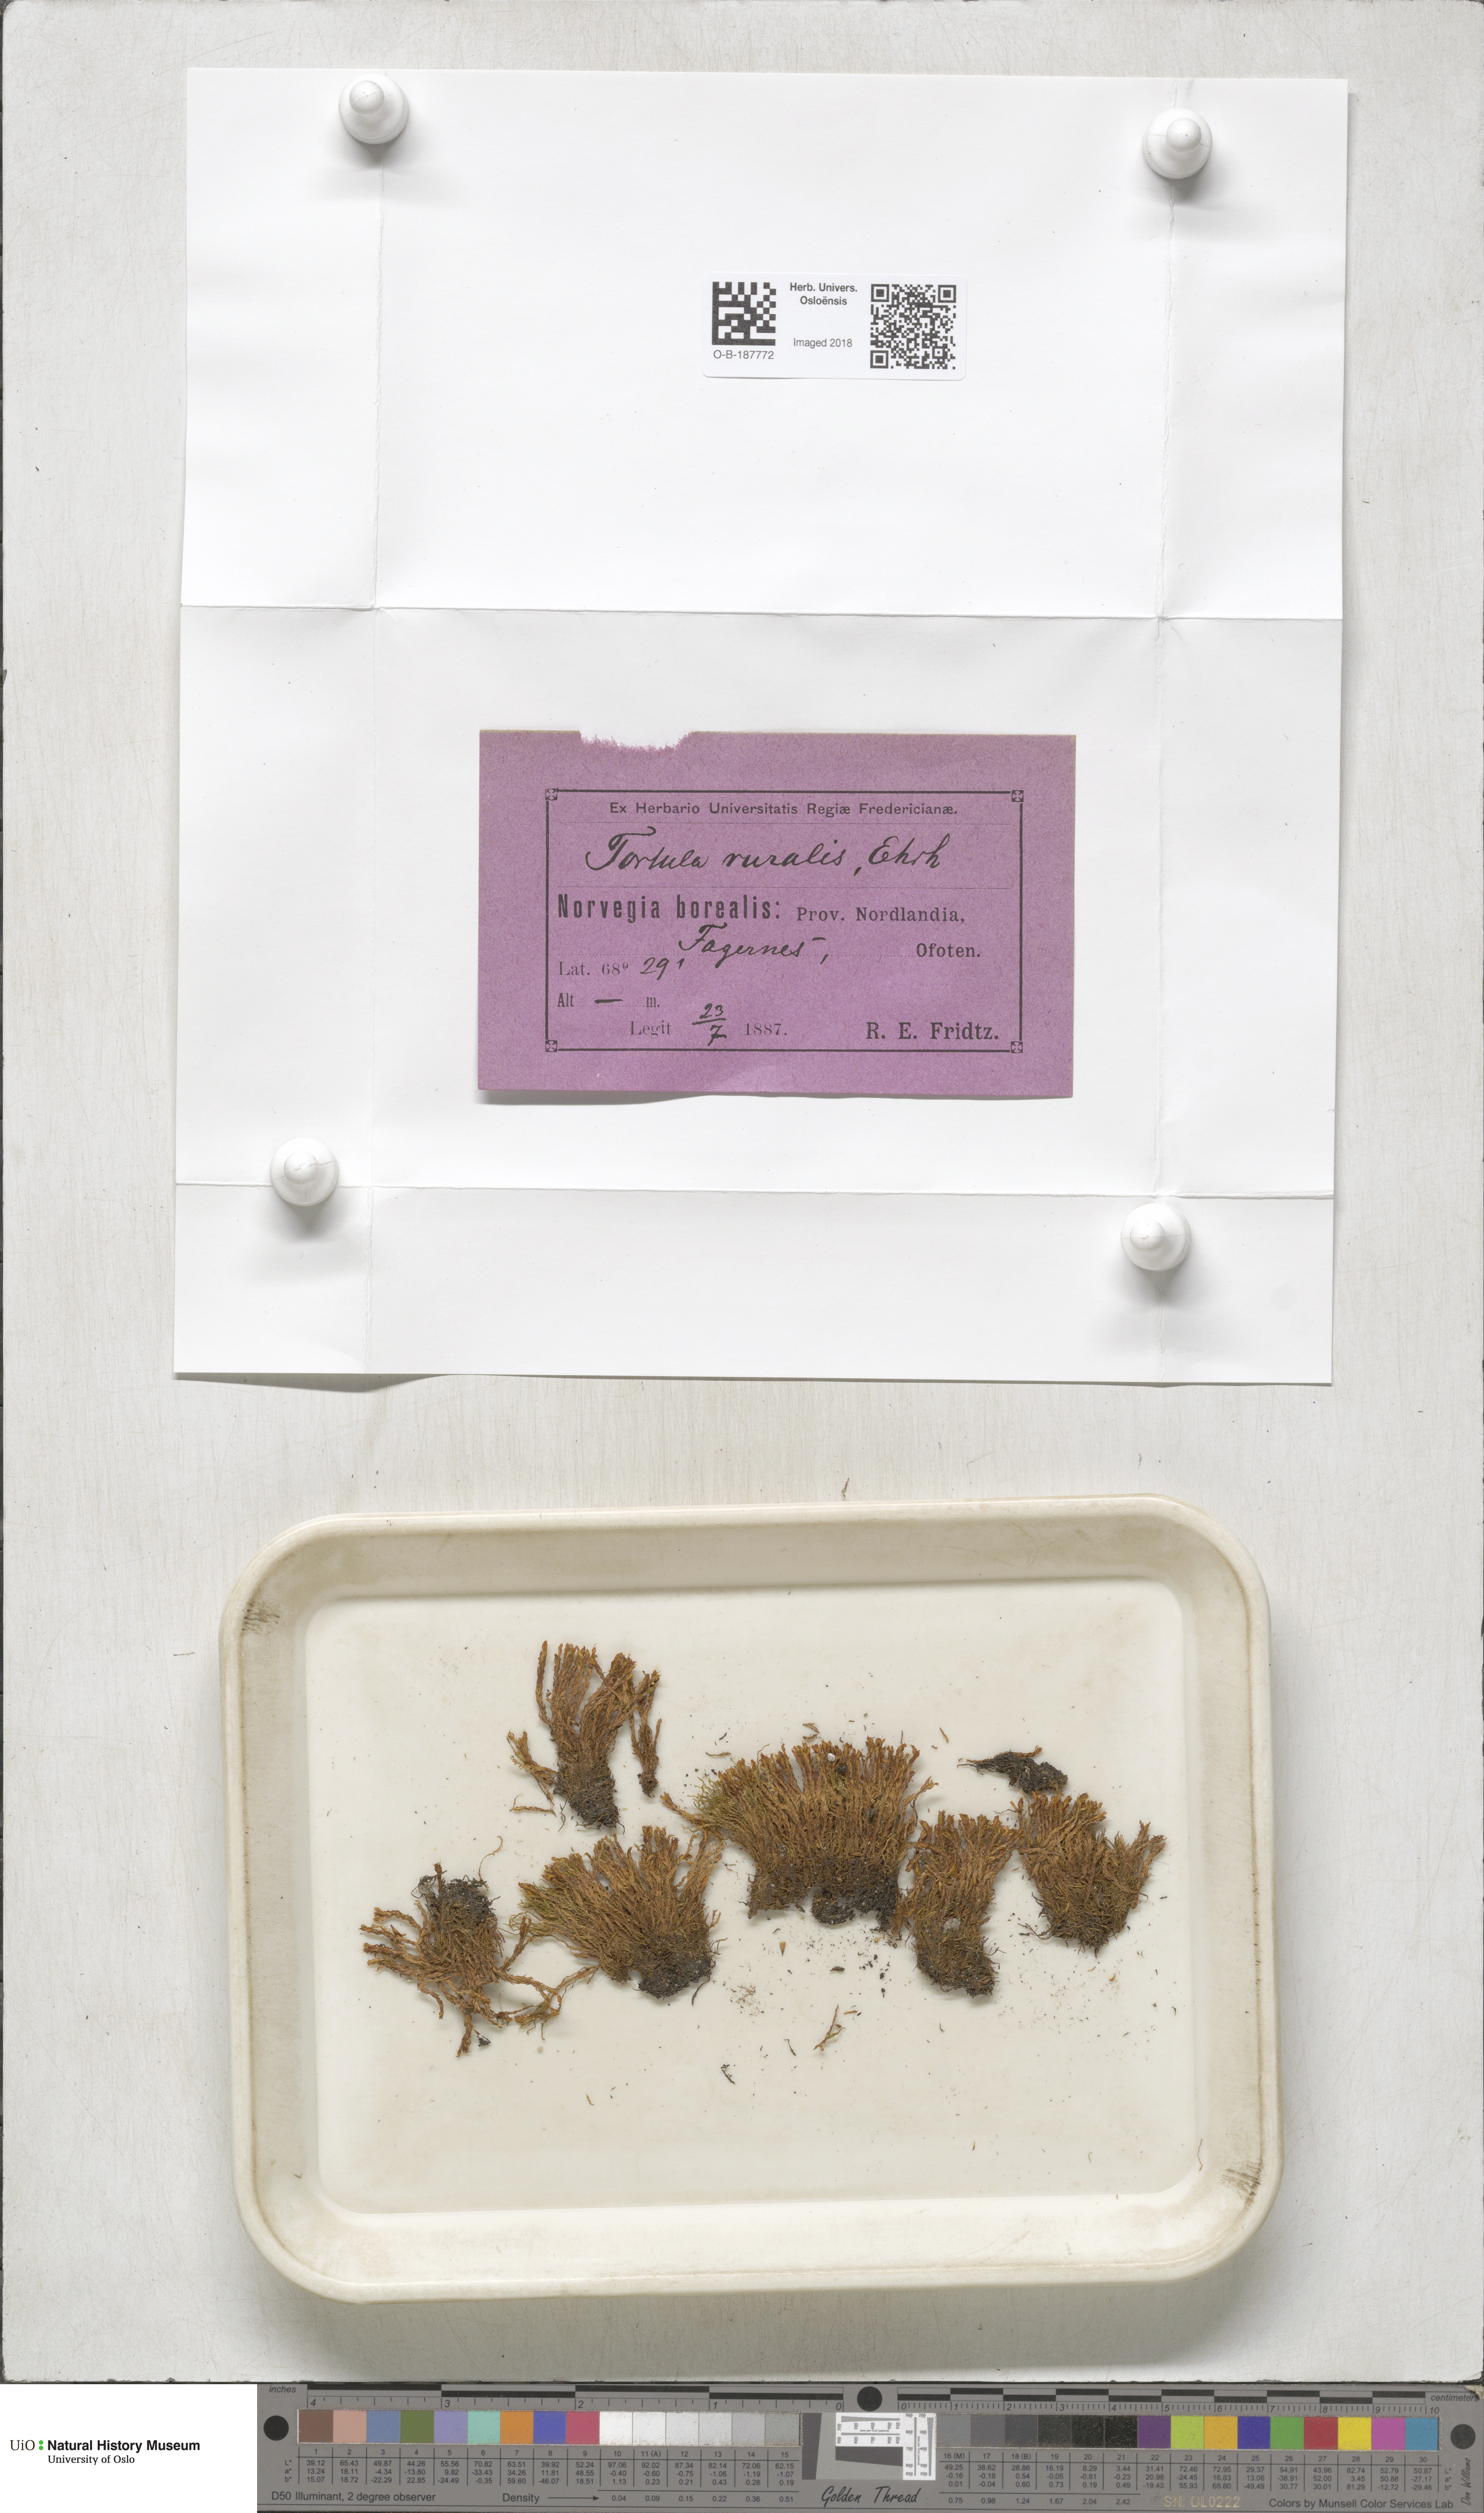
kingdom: Plantae
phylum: Bryophyta
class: Bryopsida
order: Pottiales
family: Pottiaceae
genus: Syntrichia
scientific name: Syntrichia ruralis
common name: Sidewalk screw moss
